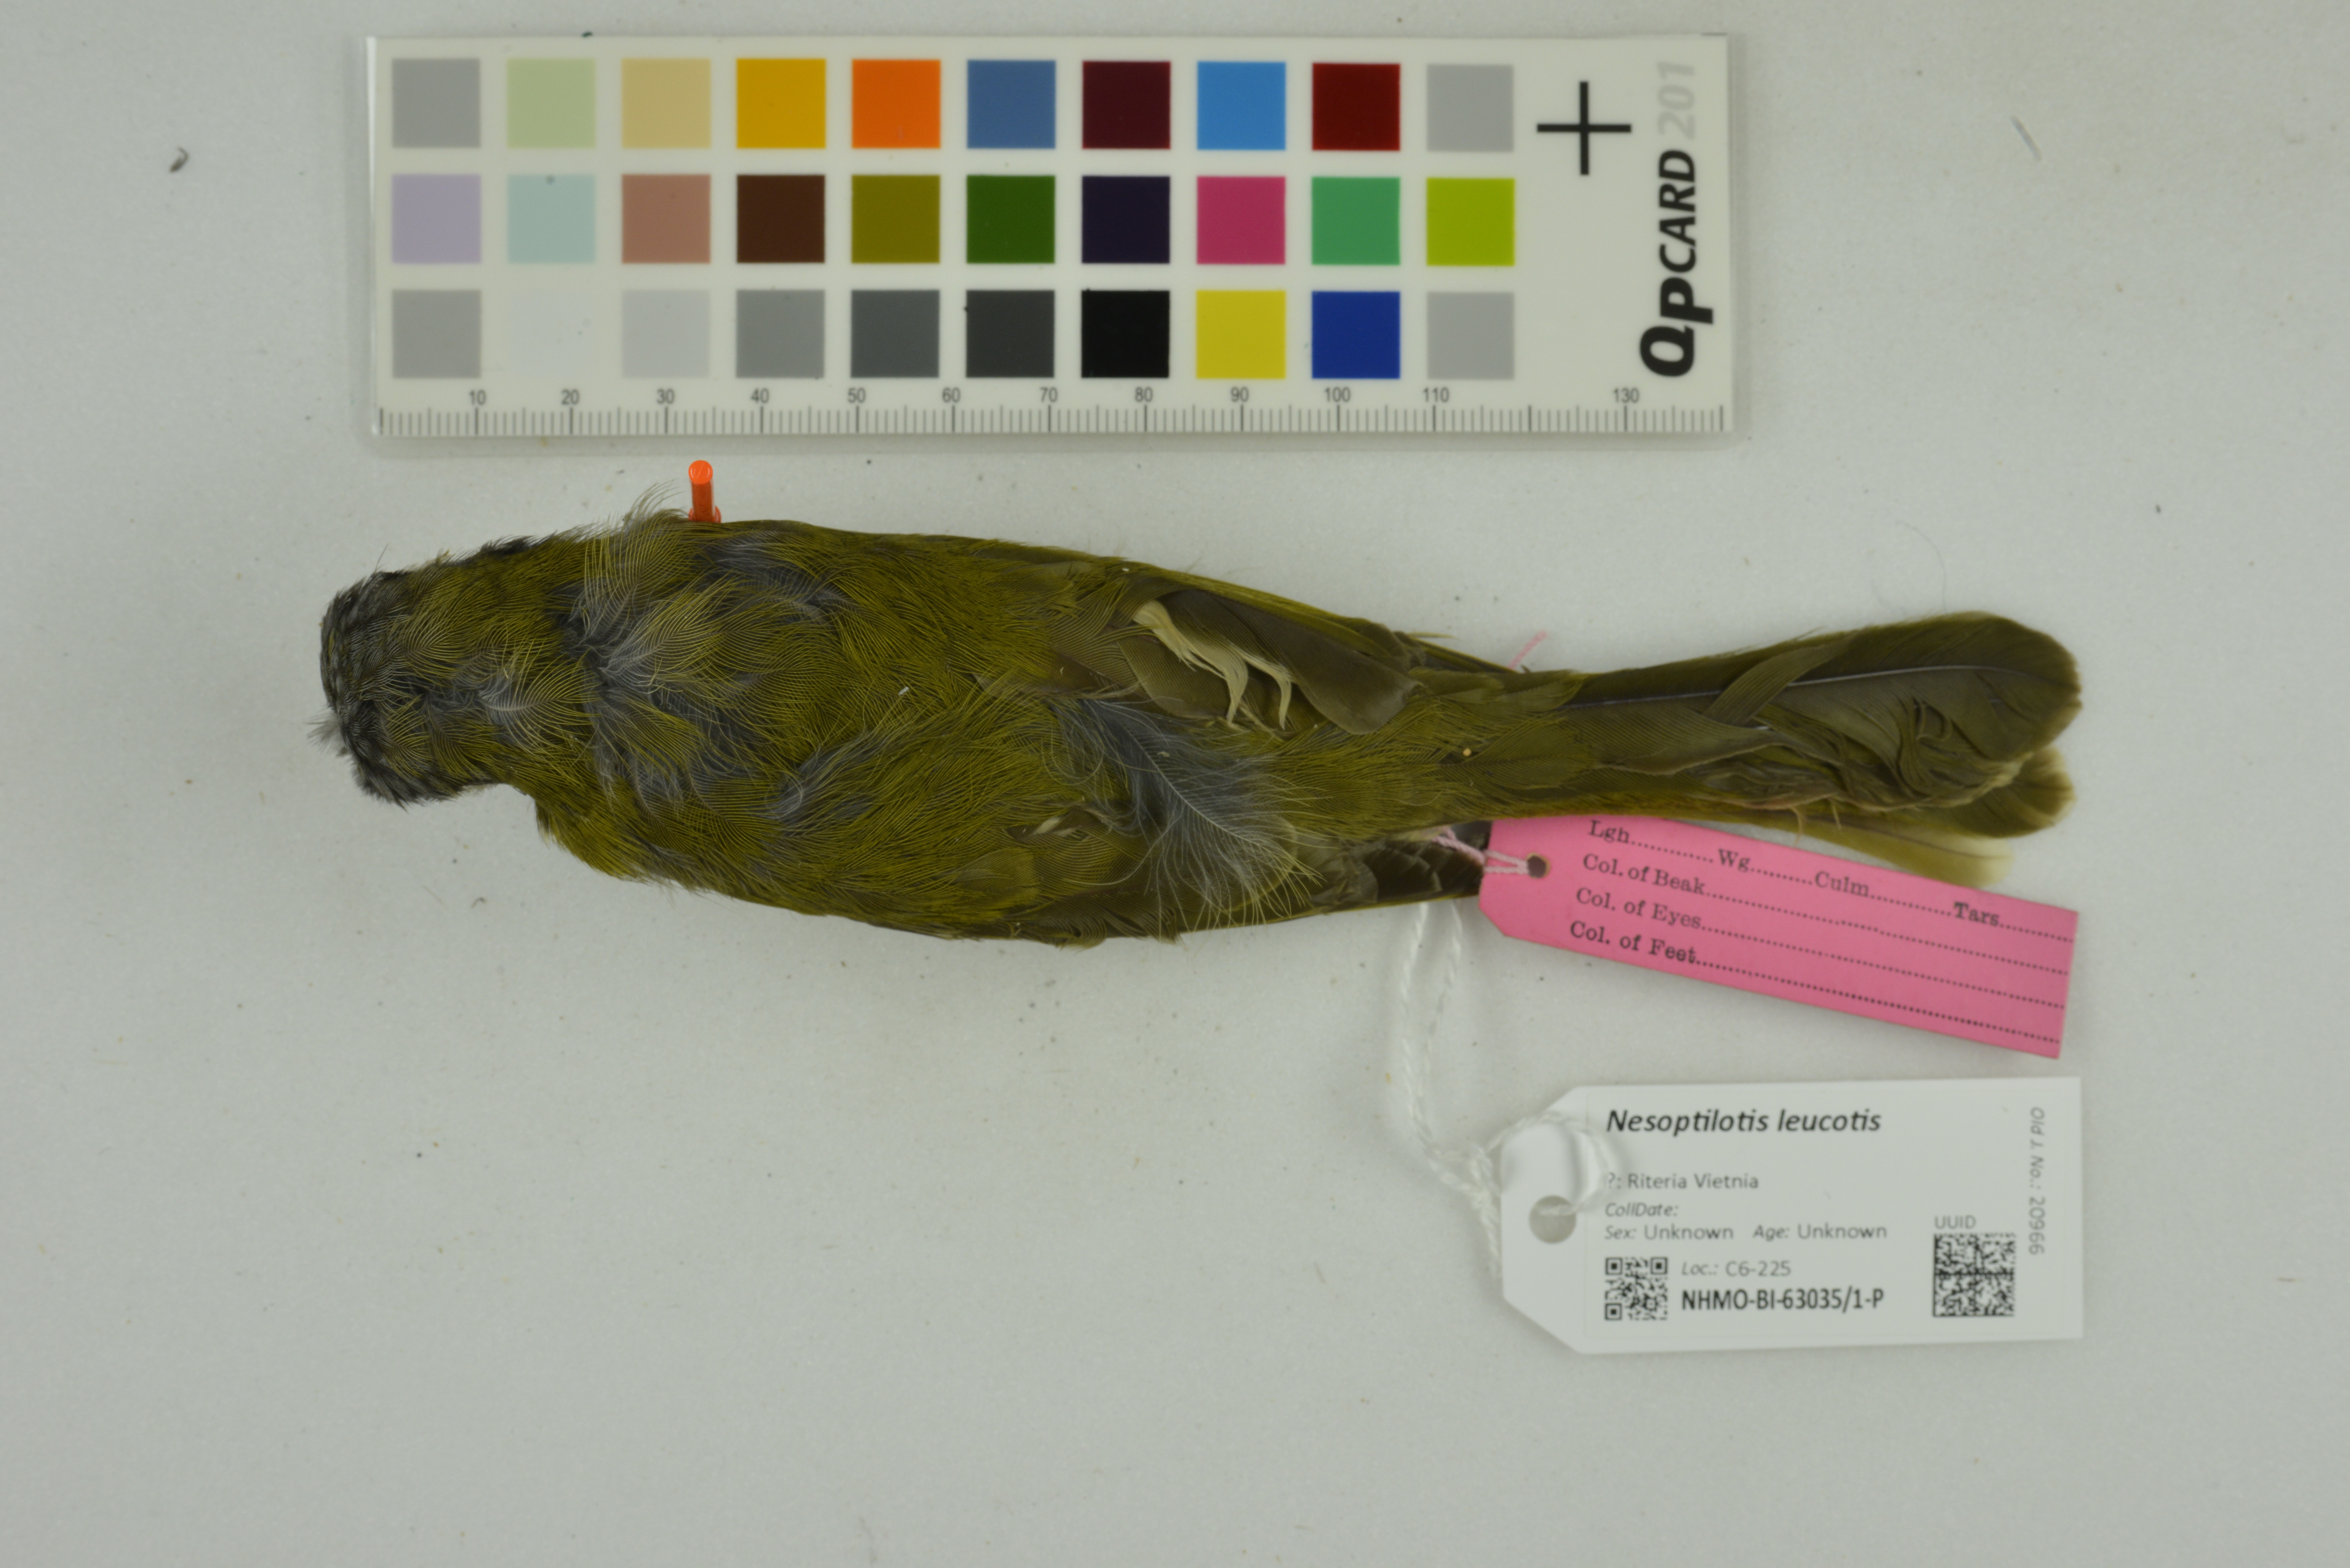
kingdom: Animalia
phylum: Chordata
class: Aves
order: Passeriformes
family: Meliphagidae
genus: Nesoptilotis
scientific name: Nesoptilotis leucotis
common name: White-eared honeyeater
